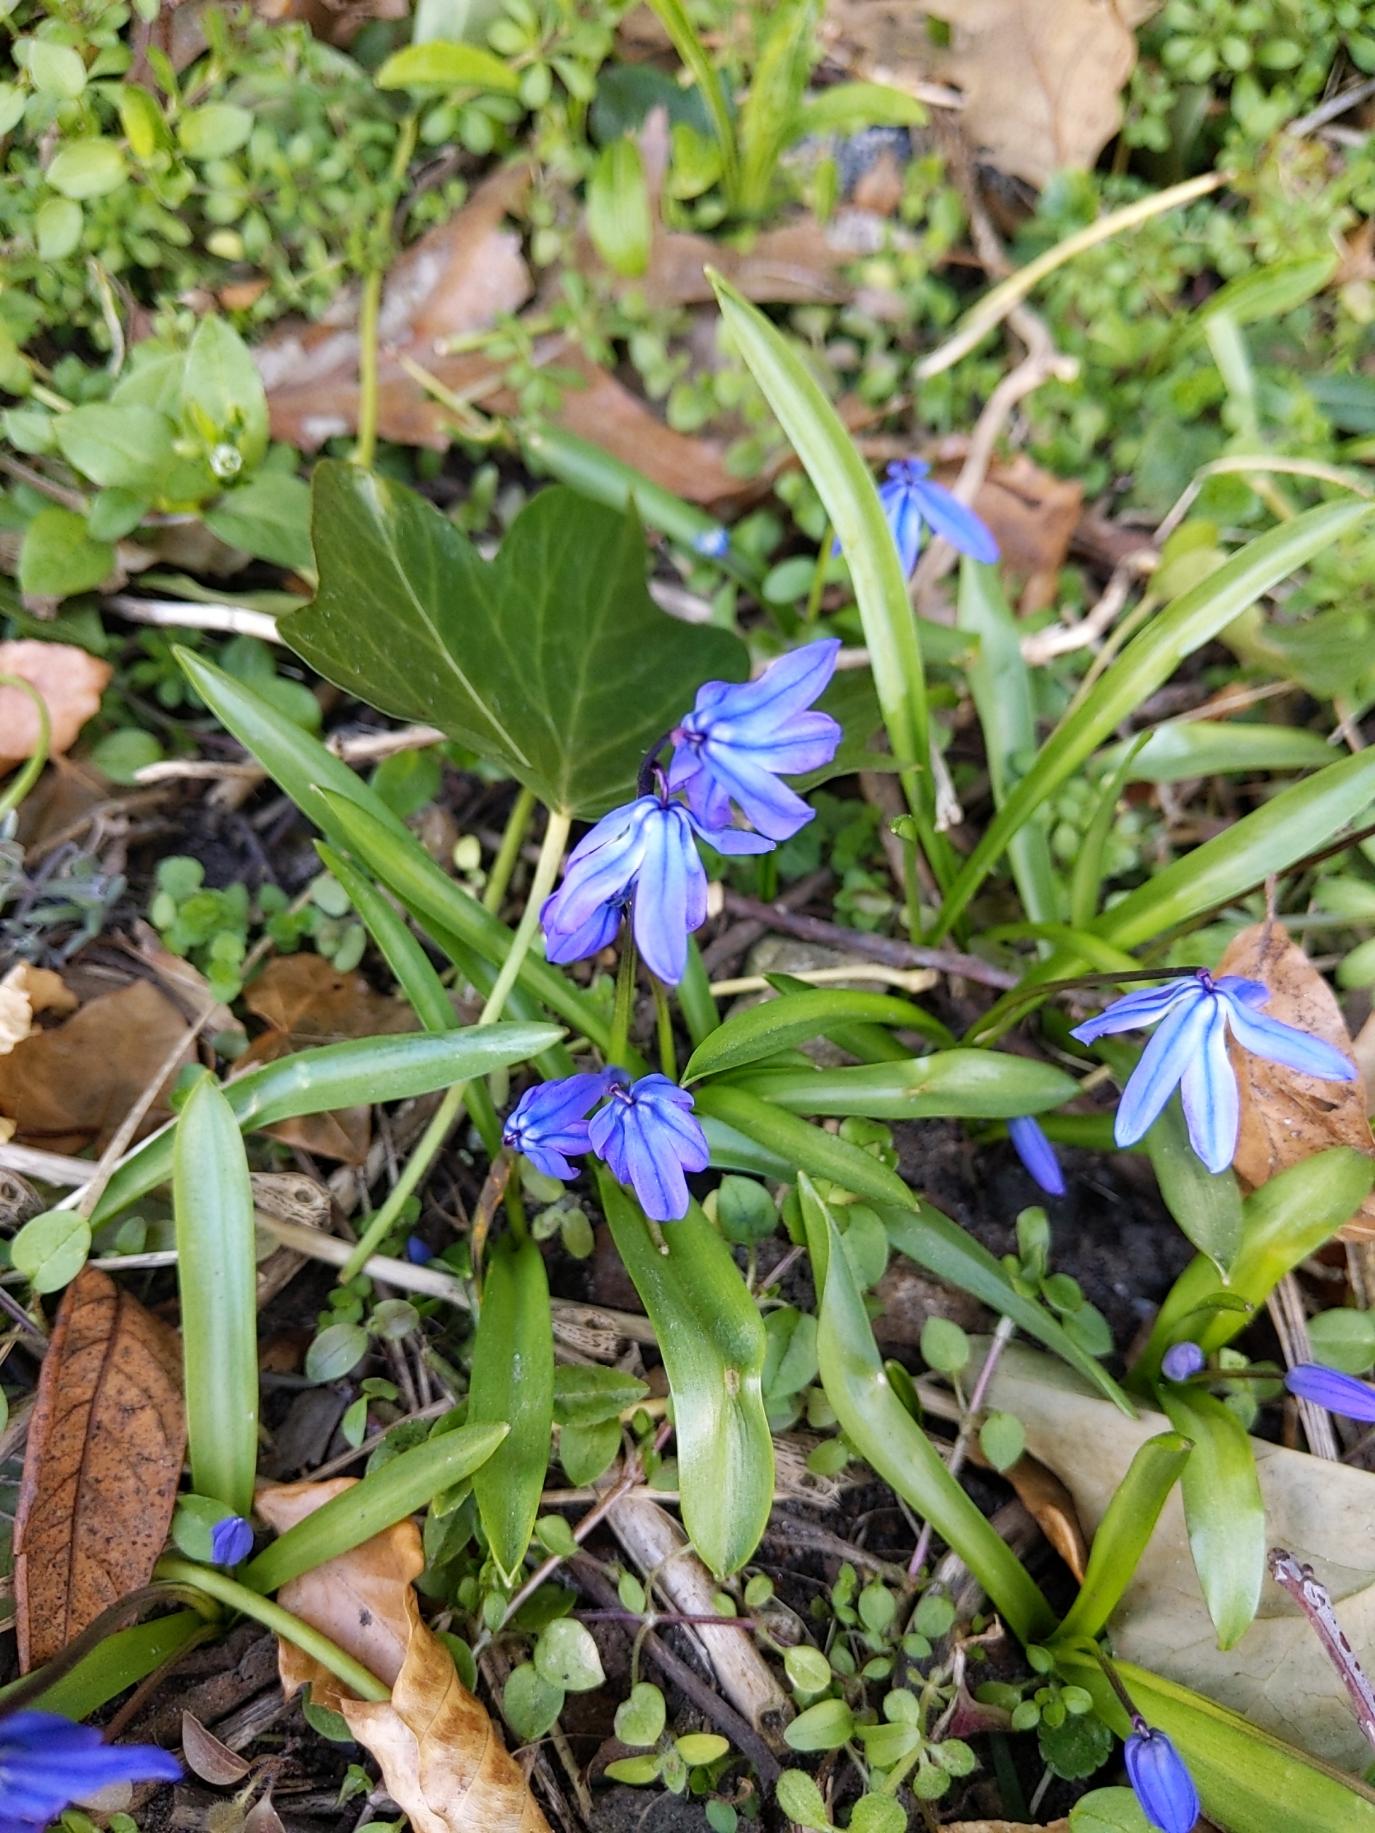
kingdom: Plantae
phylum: Tracheophyta
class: Liliopsida
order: Asparagales
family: Asparagaceae
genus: Scilla
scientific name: Scilla siberica
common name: Russisk skilla
